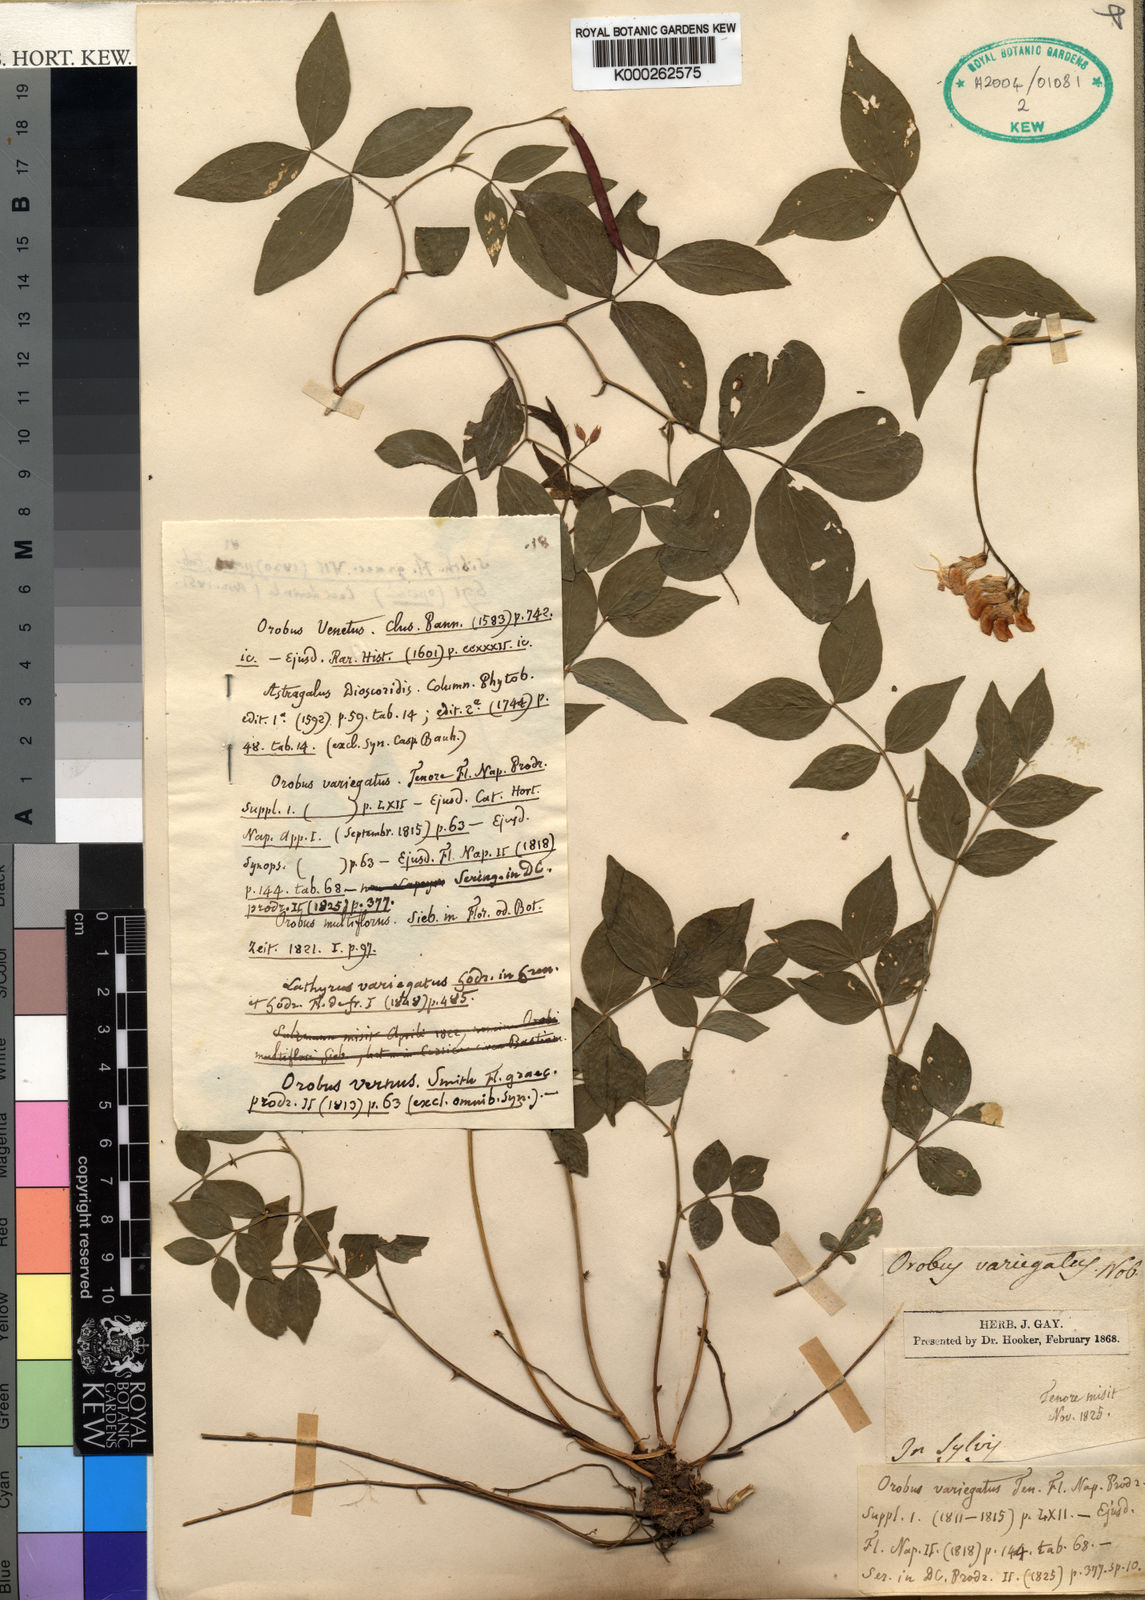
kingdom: Plantae
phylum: Tracheophyta
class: Magnoliopsida
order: Fabales
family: Fabaceae
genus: Lathyrus
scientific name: Lathyrus
